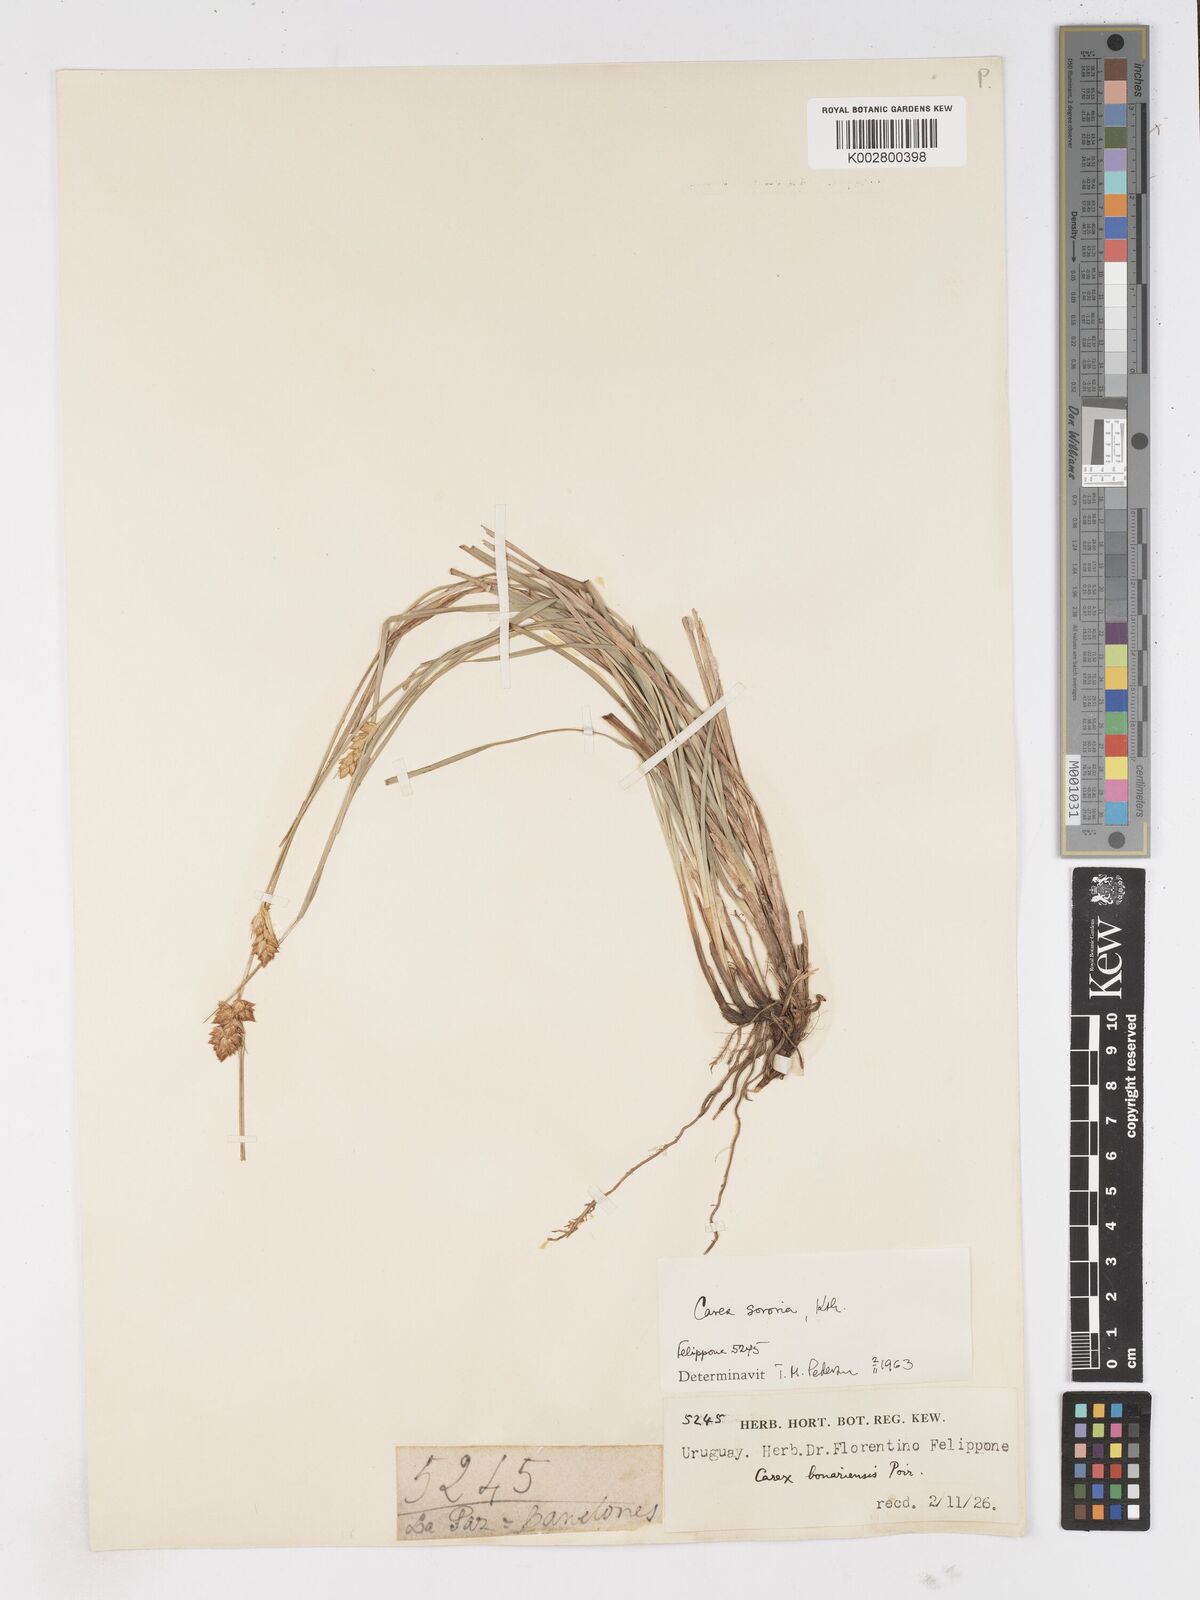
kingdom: Plantae
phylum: Tracheophyta
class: Liliopsida
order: Poales
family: Cyperaceae
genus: Carex
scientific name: Carex sororia
